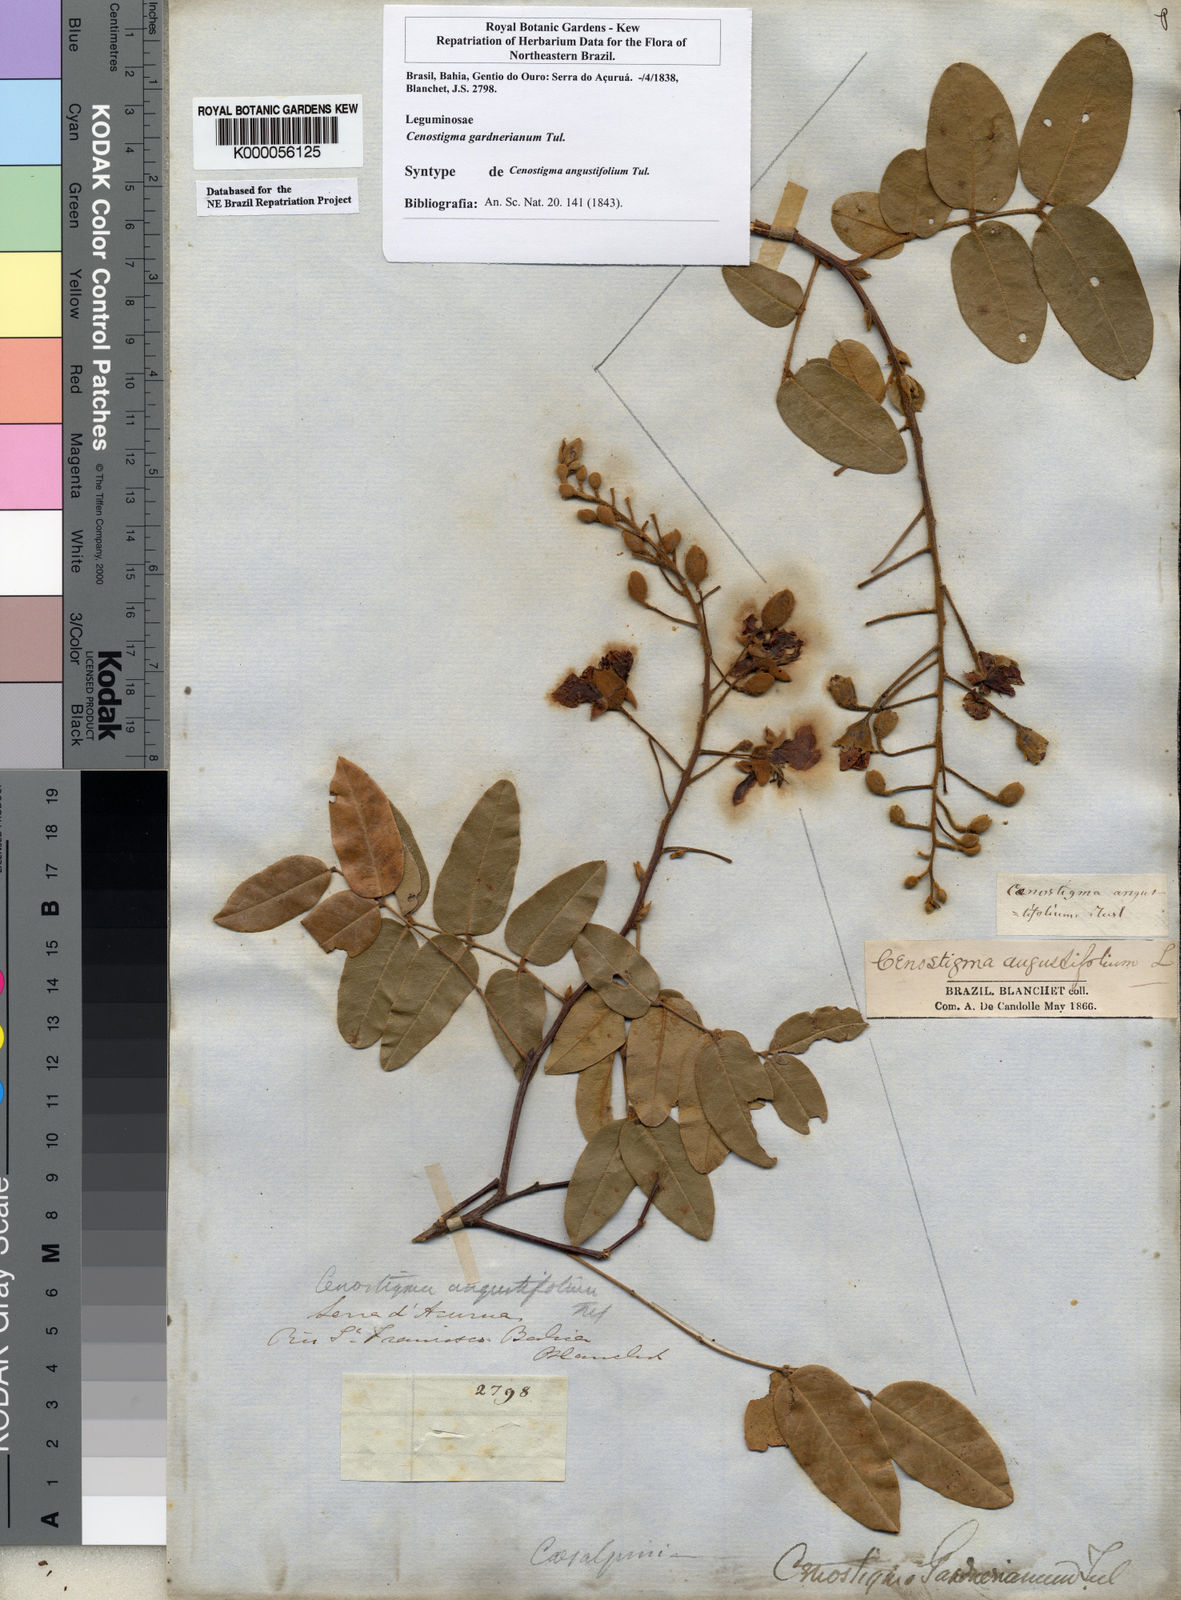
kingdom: Plantae
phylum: Tracheophyta
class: Magnoliopsida
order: Fabales
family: Fabaceae
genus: Cenostigma
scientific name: Cenostigma macrophyllum
